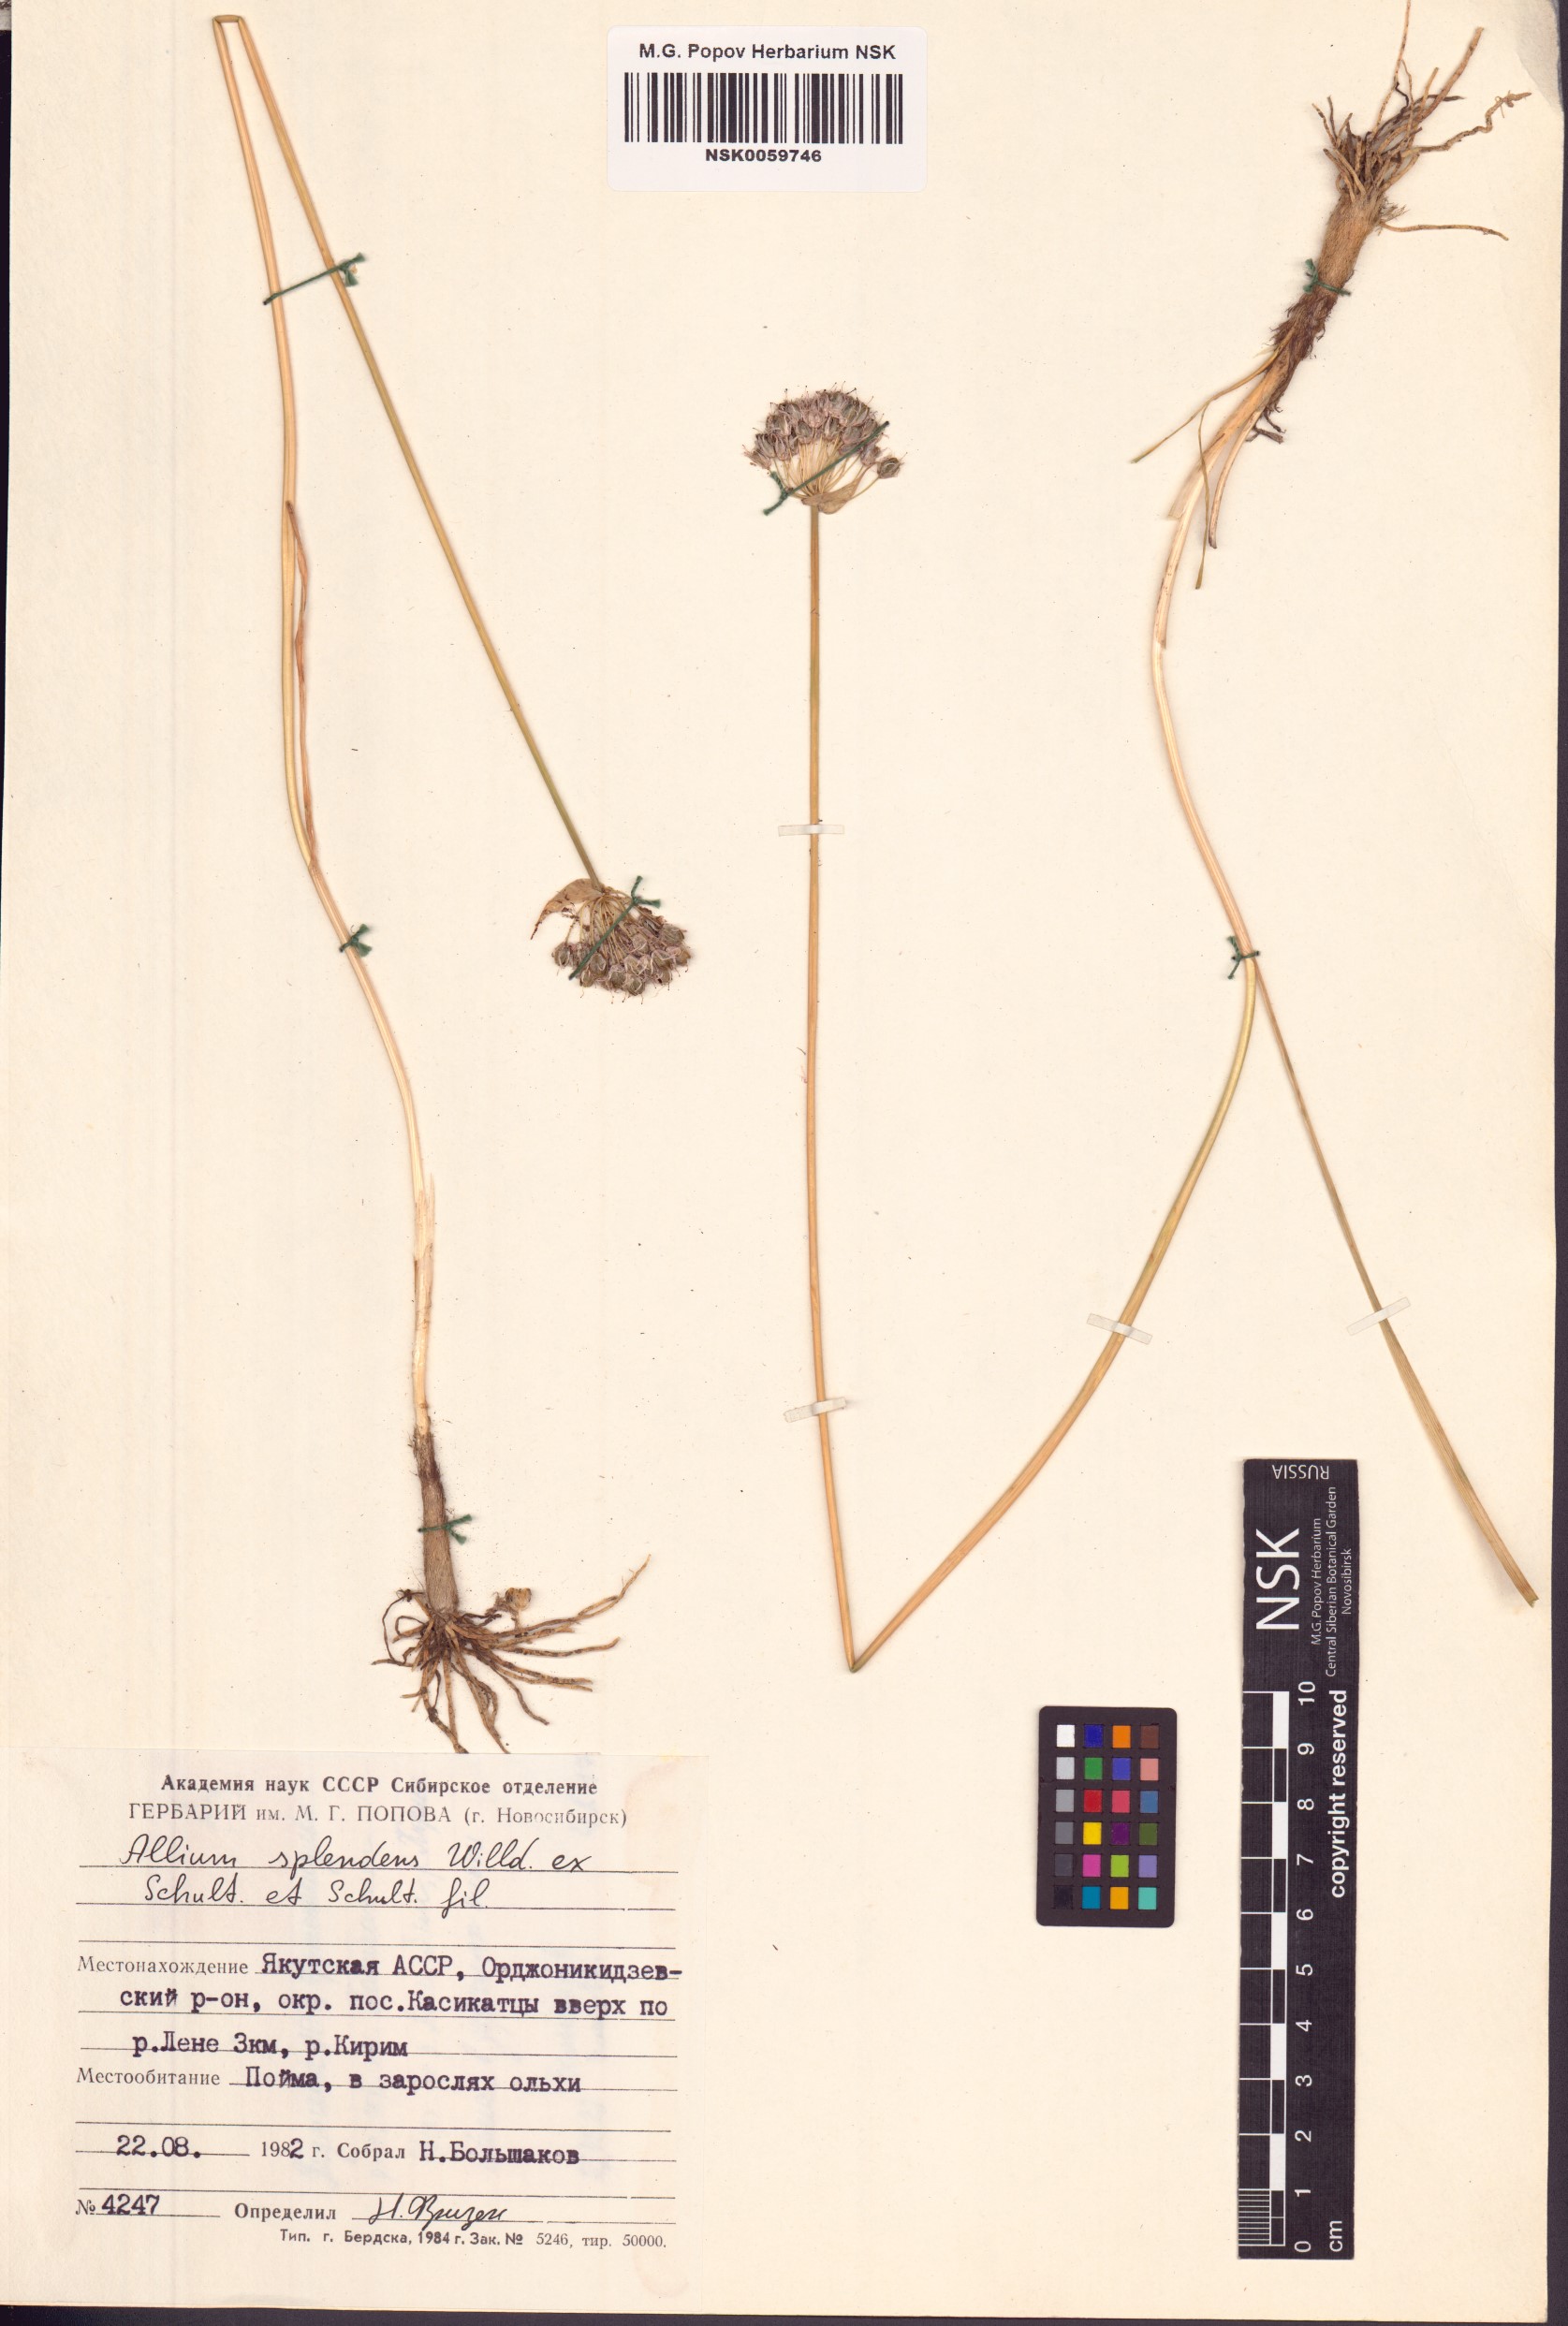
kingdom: Plantae
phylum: Tracheophyta
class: Liliopsida
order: Asparagales
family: Amaryllidaceae
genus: Allium
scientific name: Allium splendens
